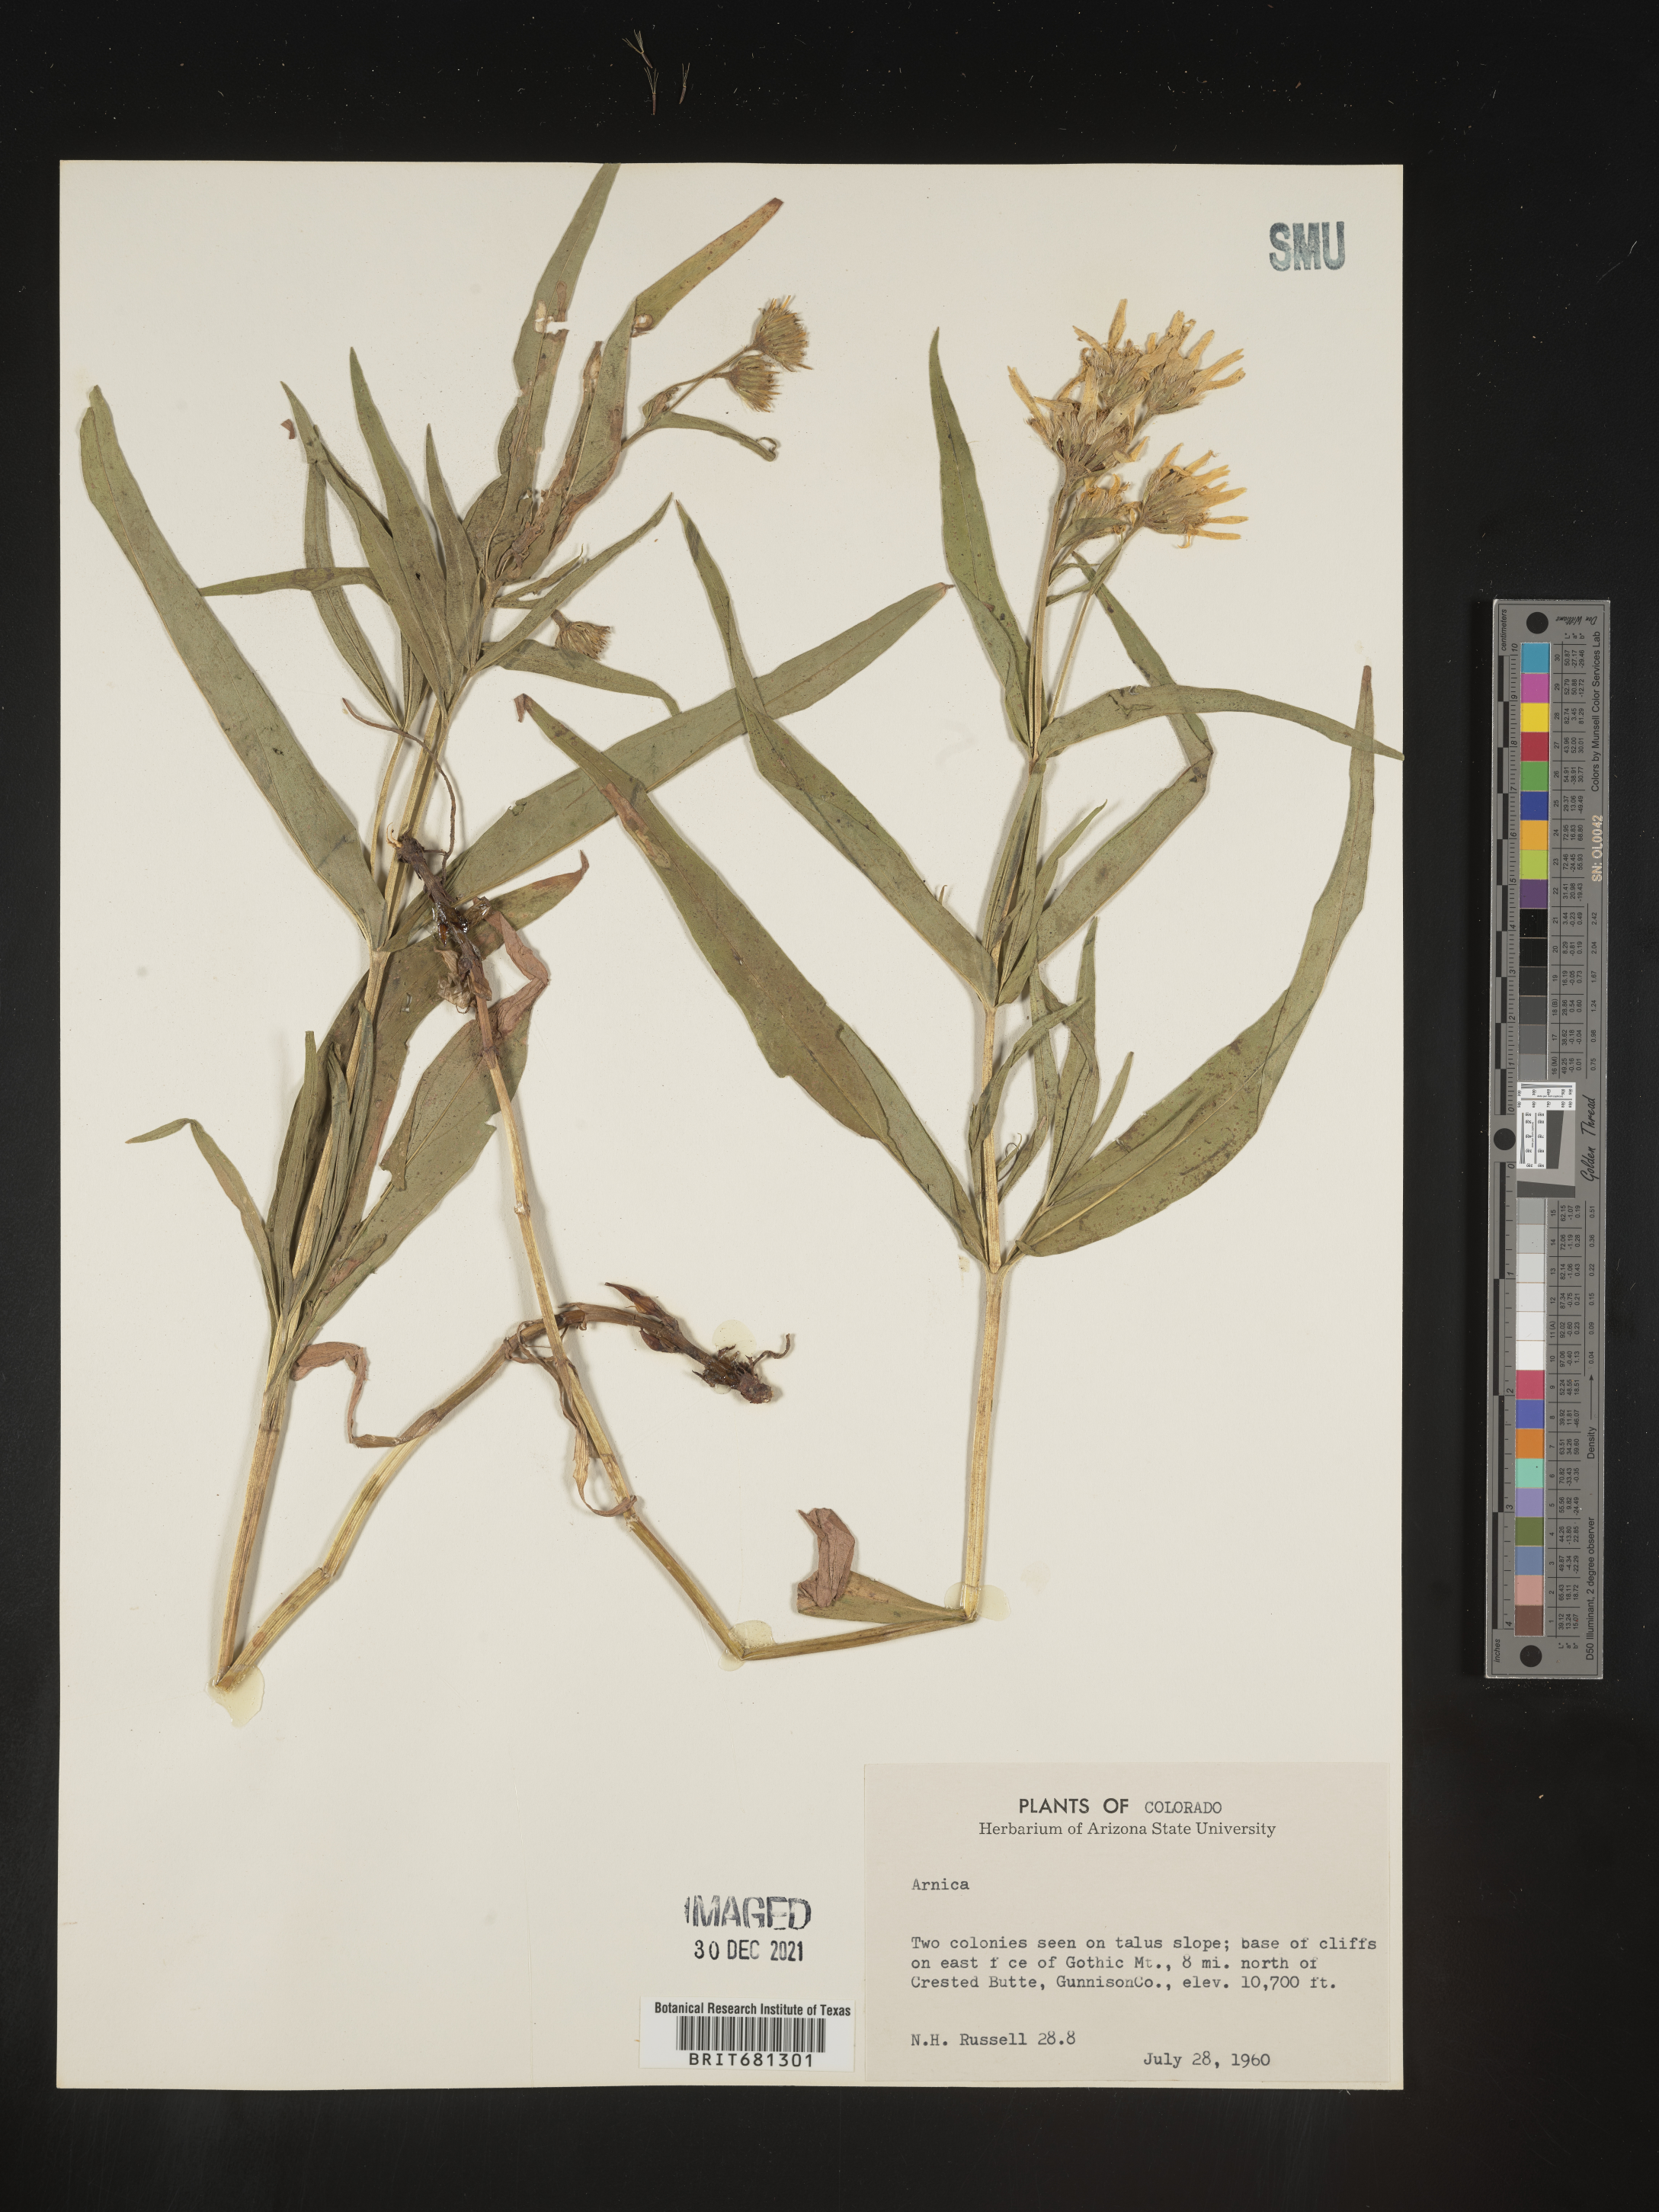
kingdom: Plantae
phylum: Tracheophyta
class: Magnoliopsida
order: Asterales
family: Asteraceae
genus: Arnica
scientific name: Arnica
